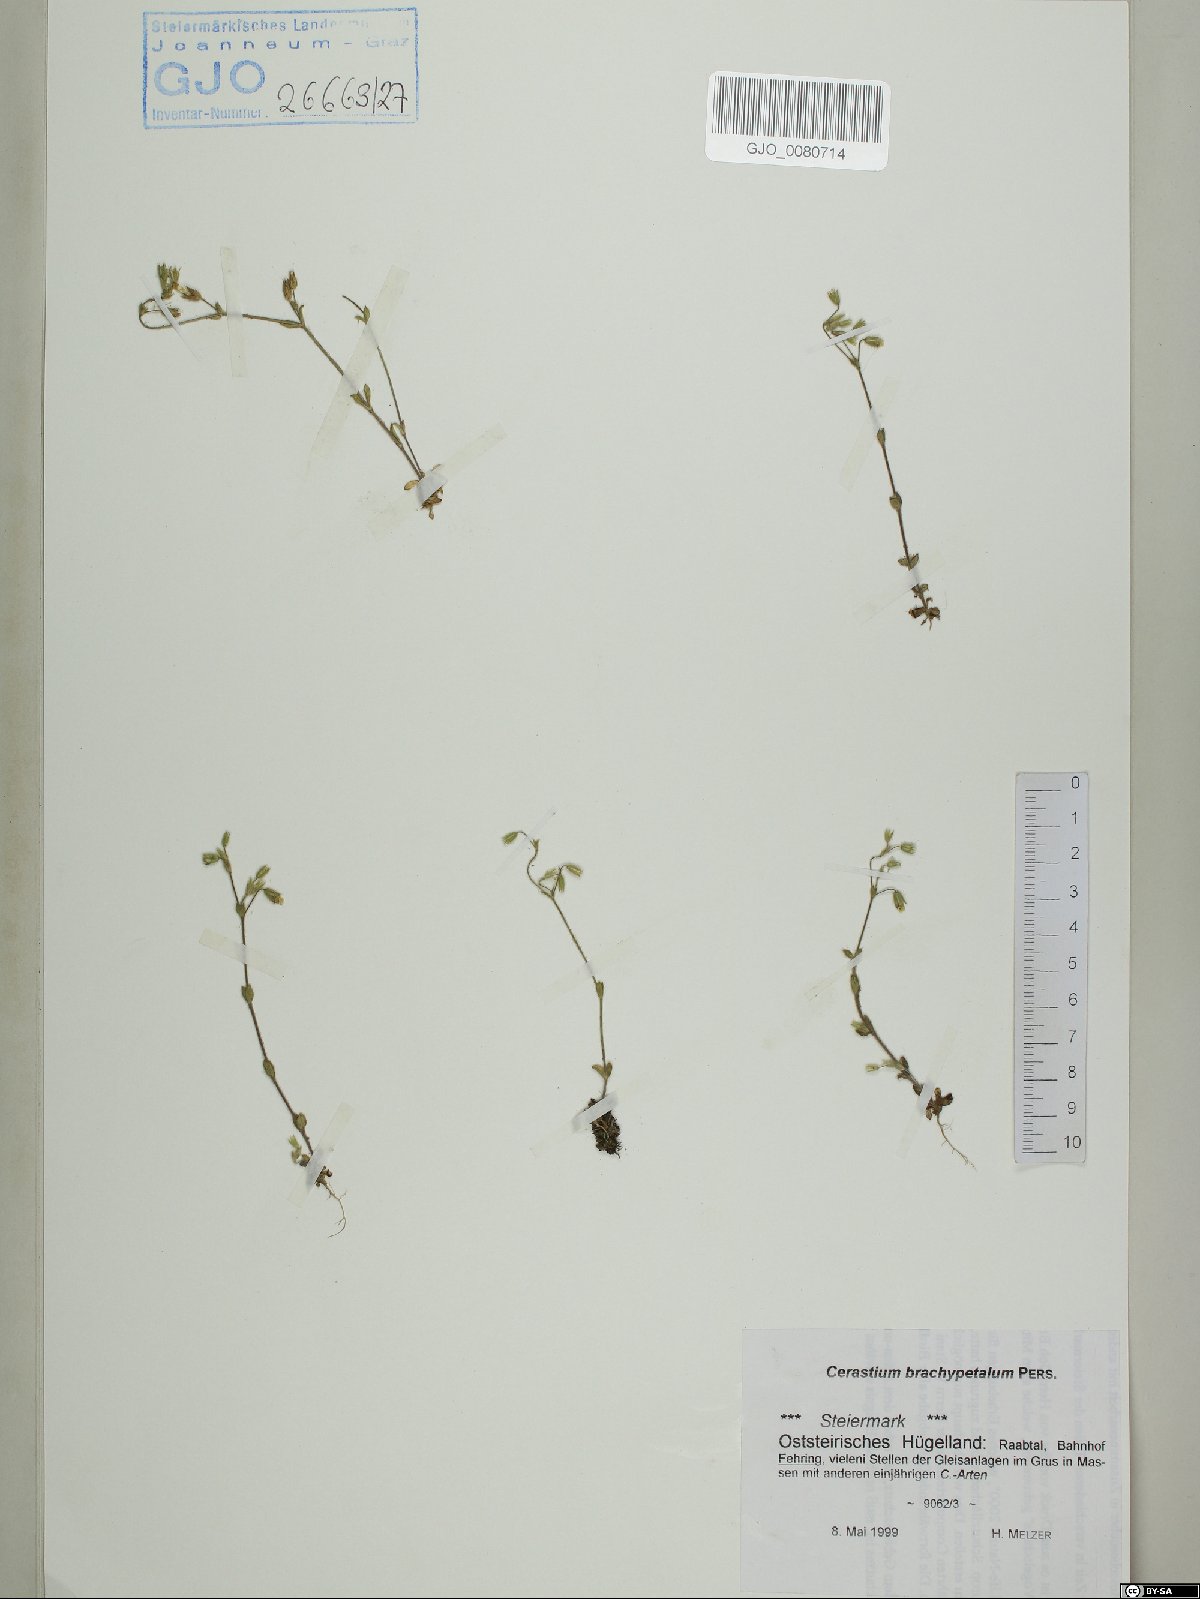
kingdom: Plantae
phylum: Tracheophyta
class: Magnoliopsida
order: Caryophyllales
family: Caryophyllaceae
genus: Cerastium
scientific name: Cerastium brachypetalum
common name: Grey mouse-ear
